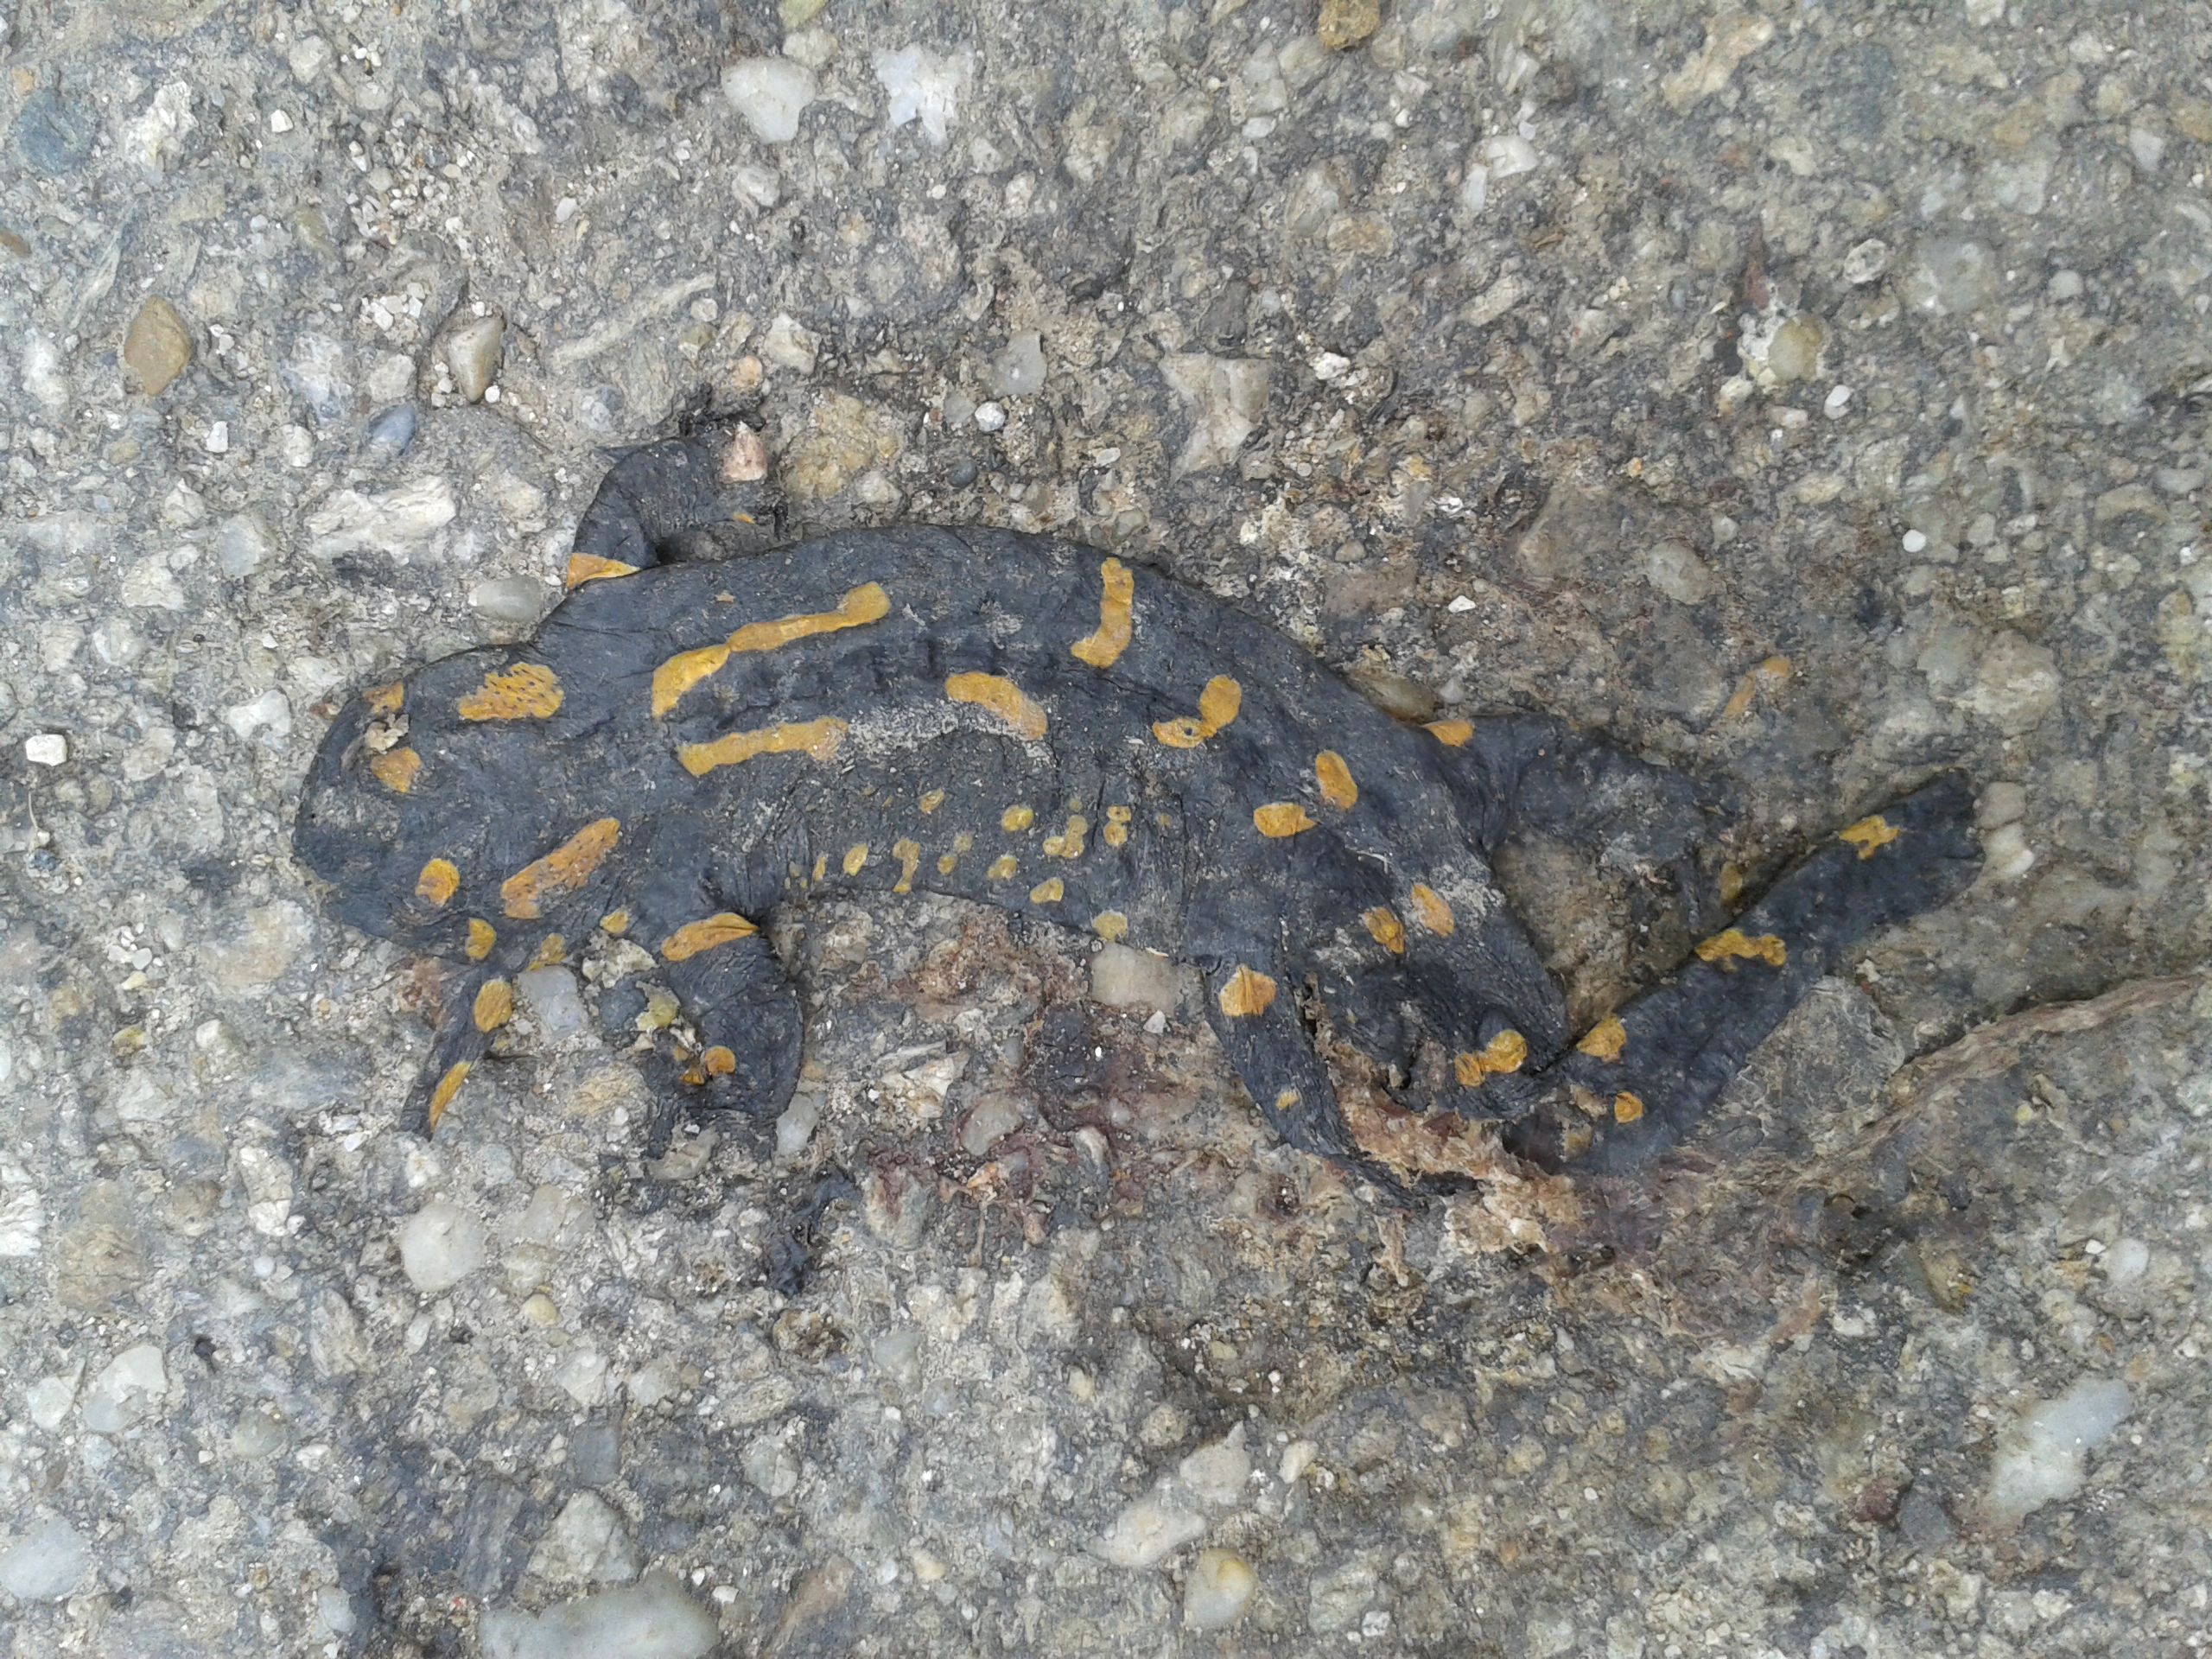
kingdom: Animalia
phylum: Chordata
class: Amphibia
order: Caudata
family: Salamandridae
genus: Salamandra
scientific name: Salamandra salamandra
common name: Fire salamander
